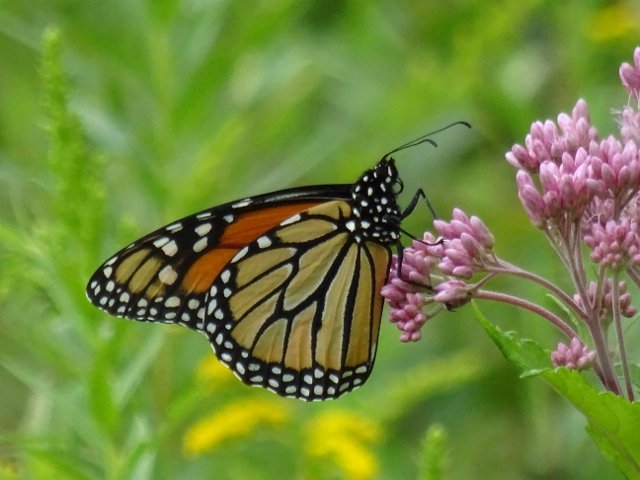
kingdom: Animalia
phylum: Arthropoda
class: Insecta
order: Lepidoptera
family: Nymphalidae
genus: Danaus
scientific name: Danaus plexippus
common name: Monarch
